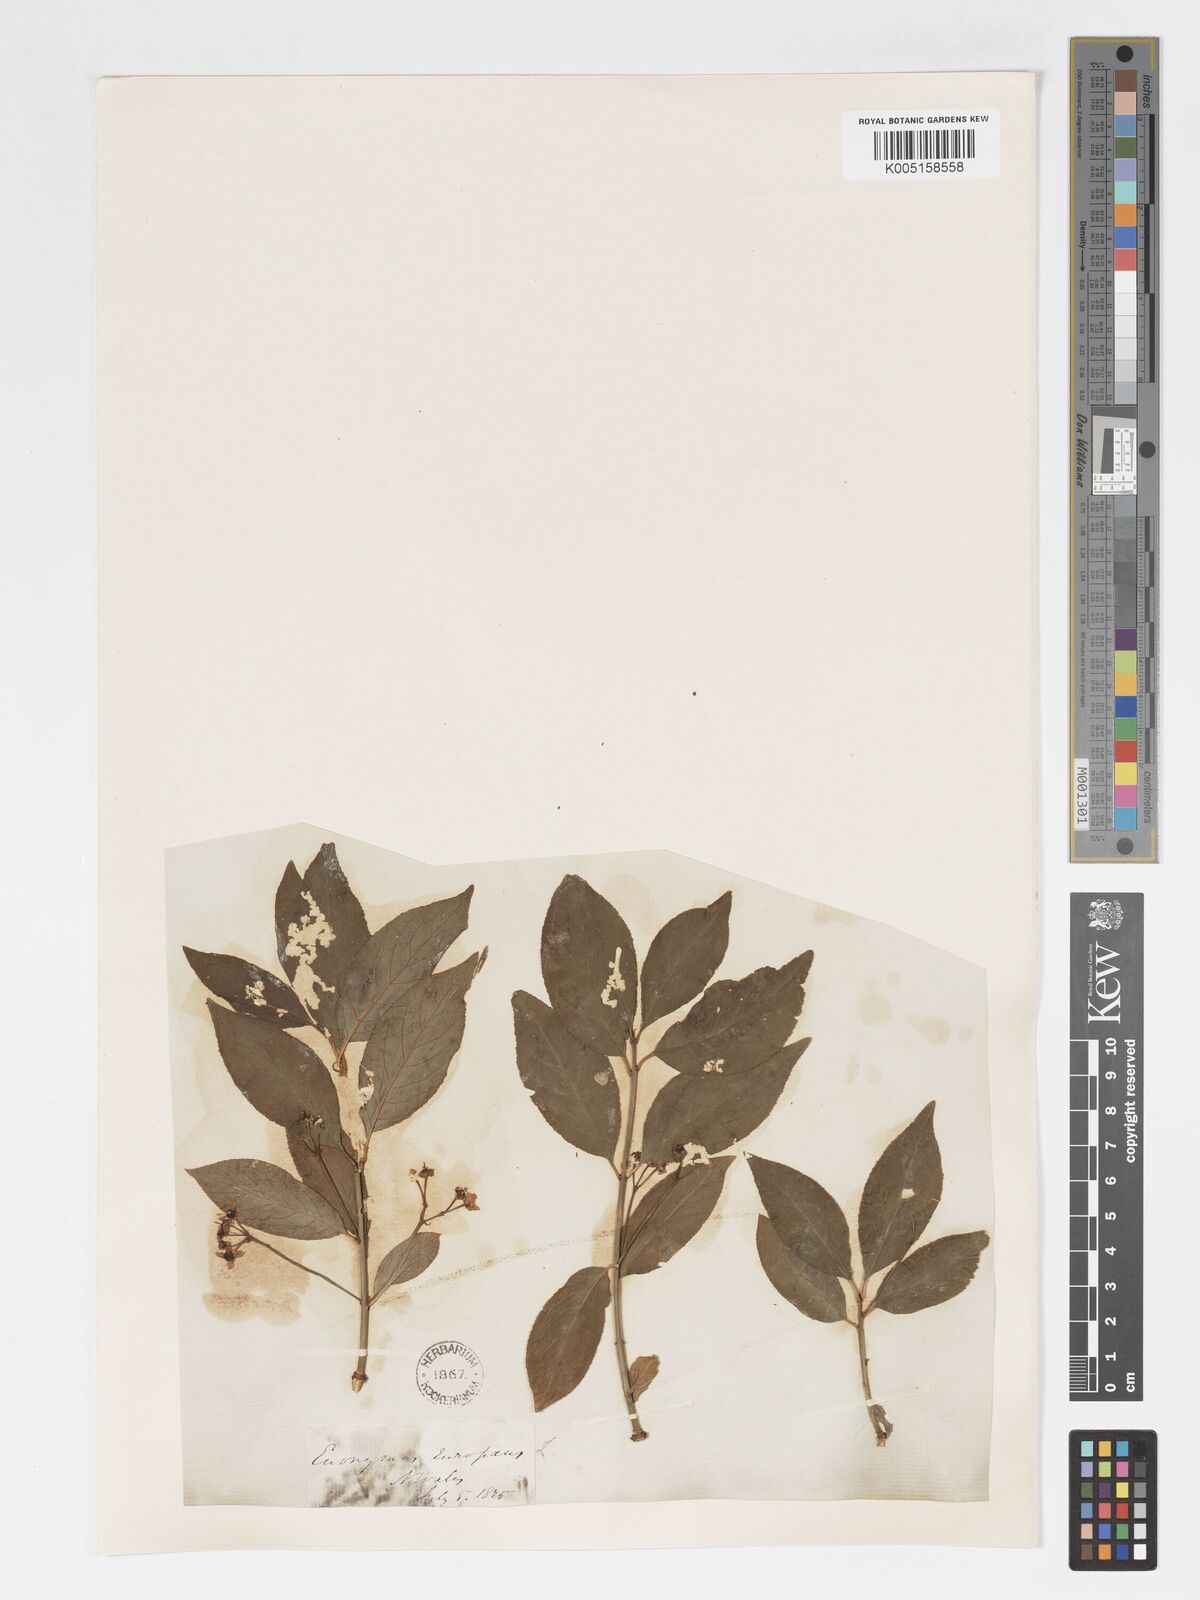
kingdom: Plantae
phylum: Tracheophyta
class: Magnoliopsida
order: Celastrales
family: Celastraceae
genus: Euonymus
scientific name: Euonymus europaeus
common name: Spindle
